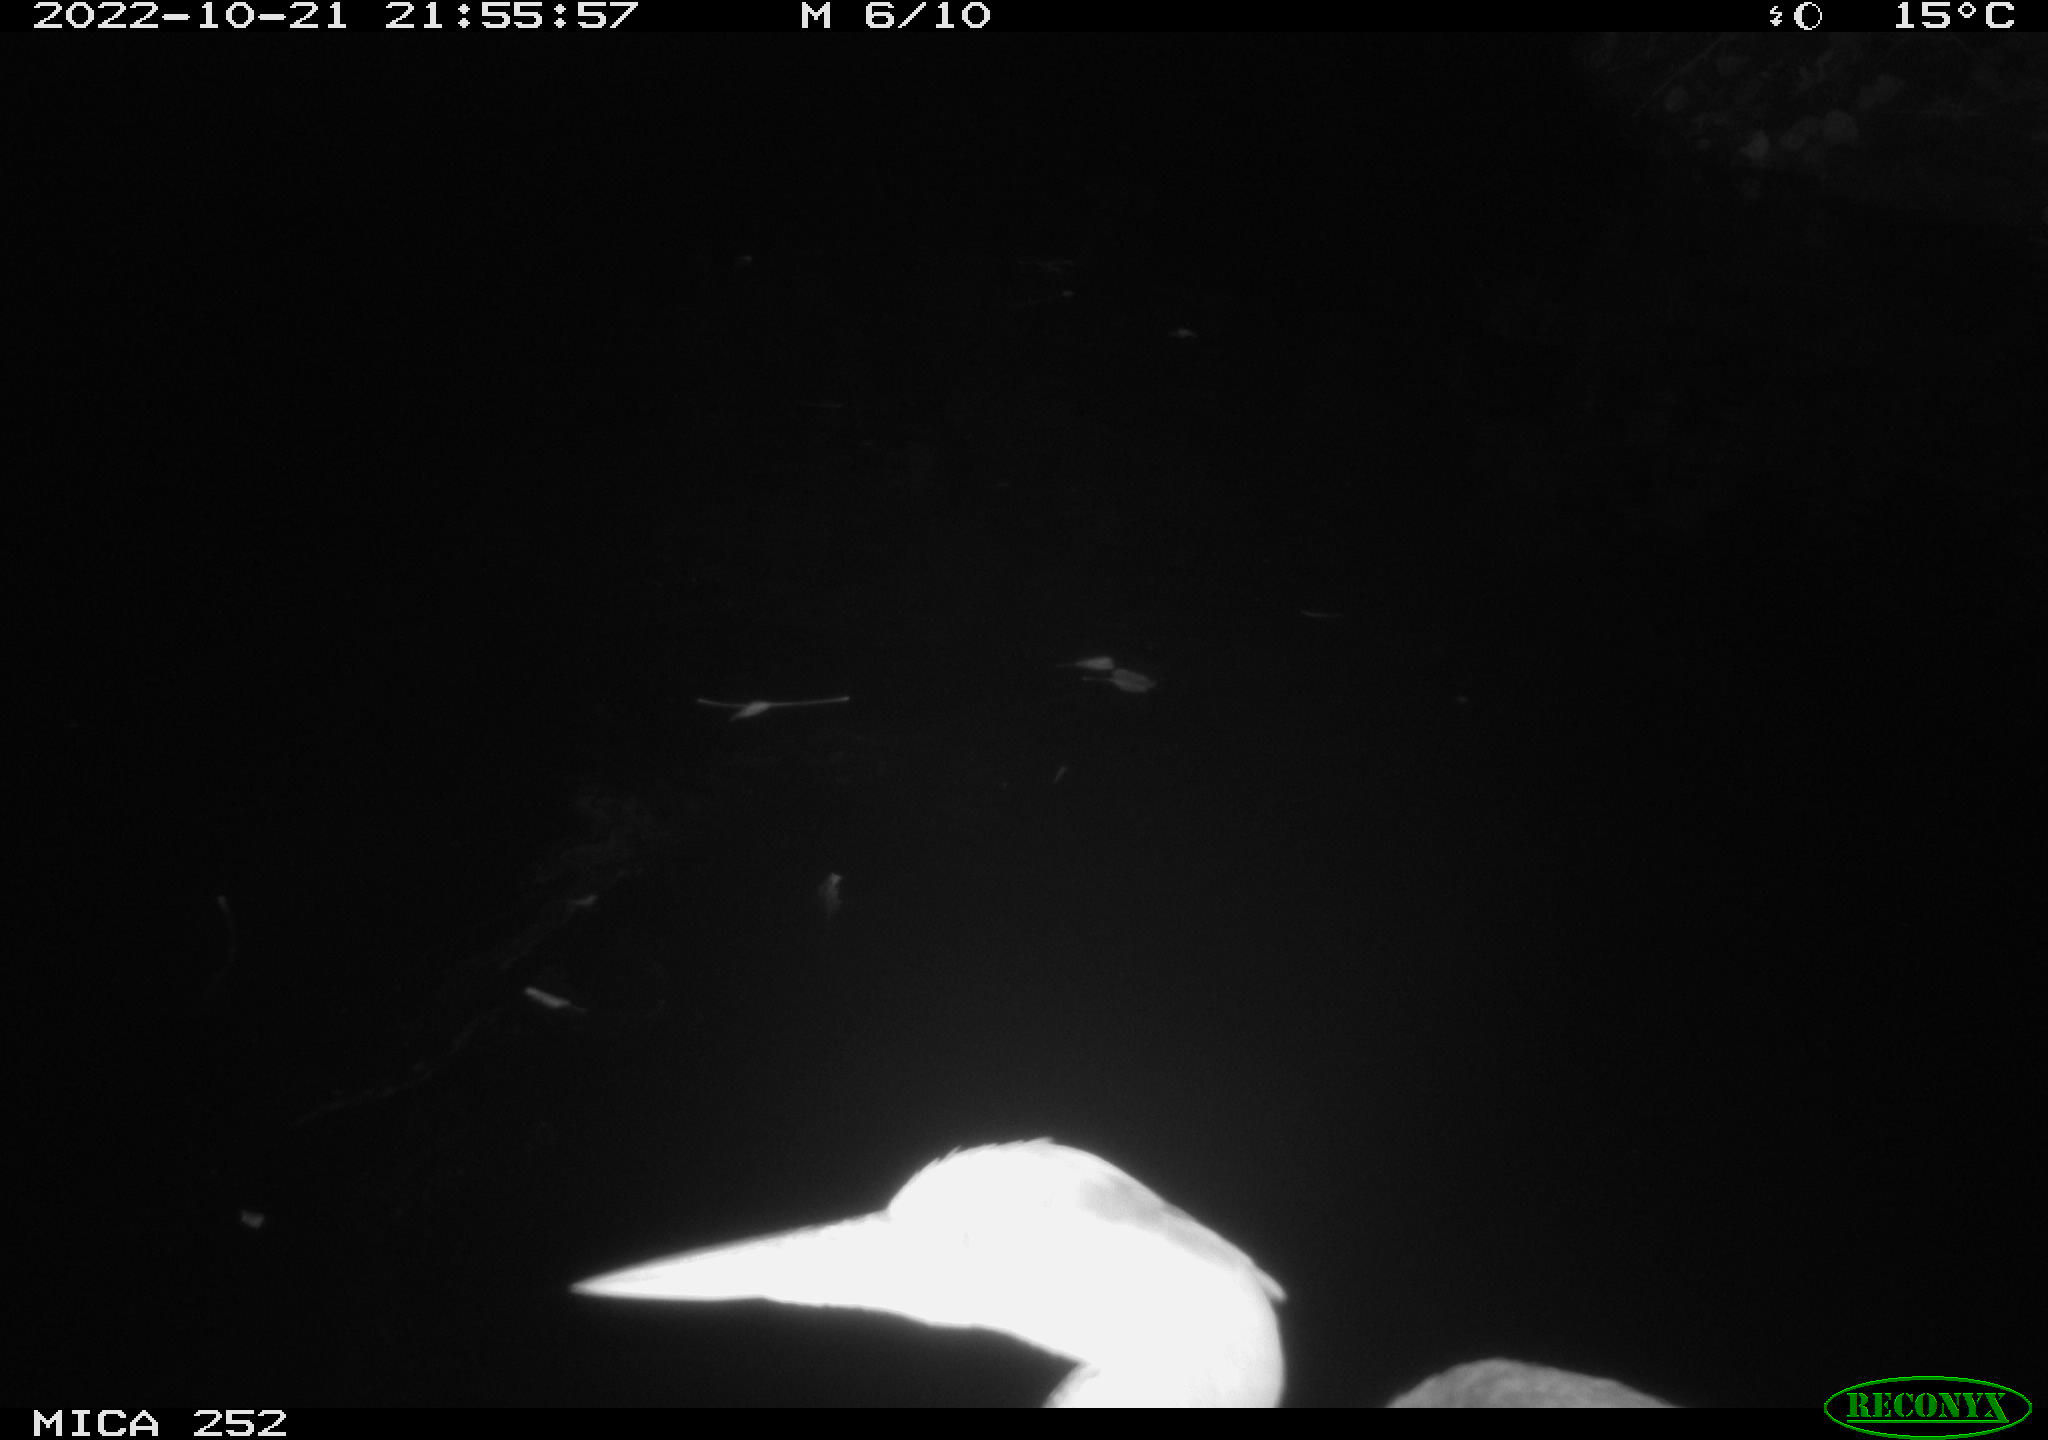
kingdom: Animalia
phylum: Chordata
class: Aves
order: Pelecaniformes
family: Ardeidae
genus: Ardea
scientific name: Ardea cinerea
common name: Grey heron
